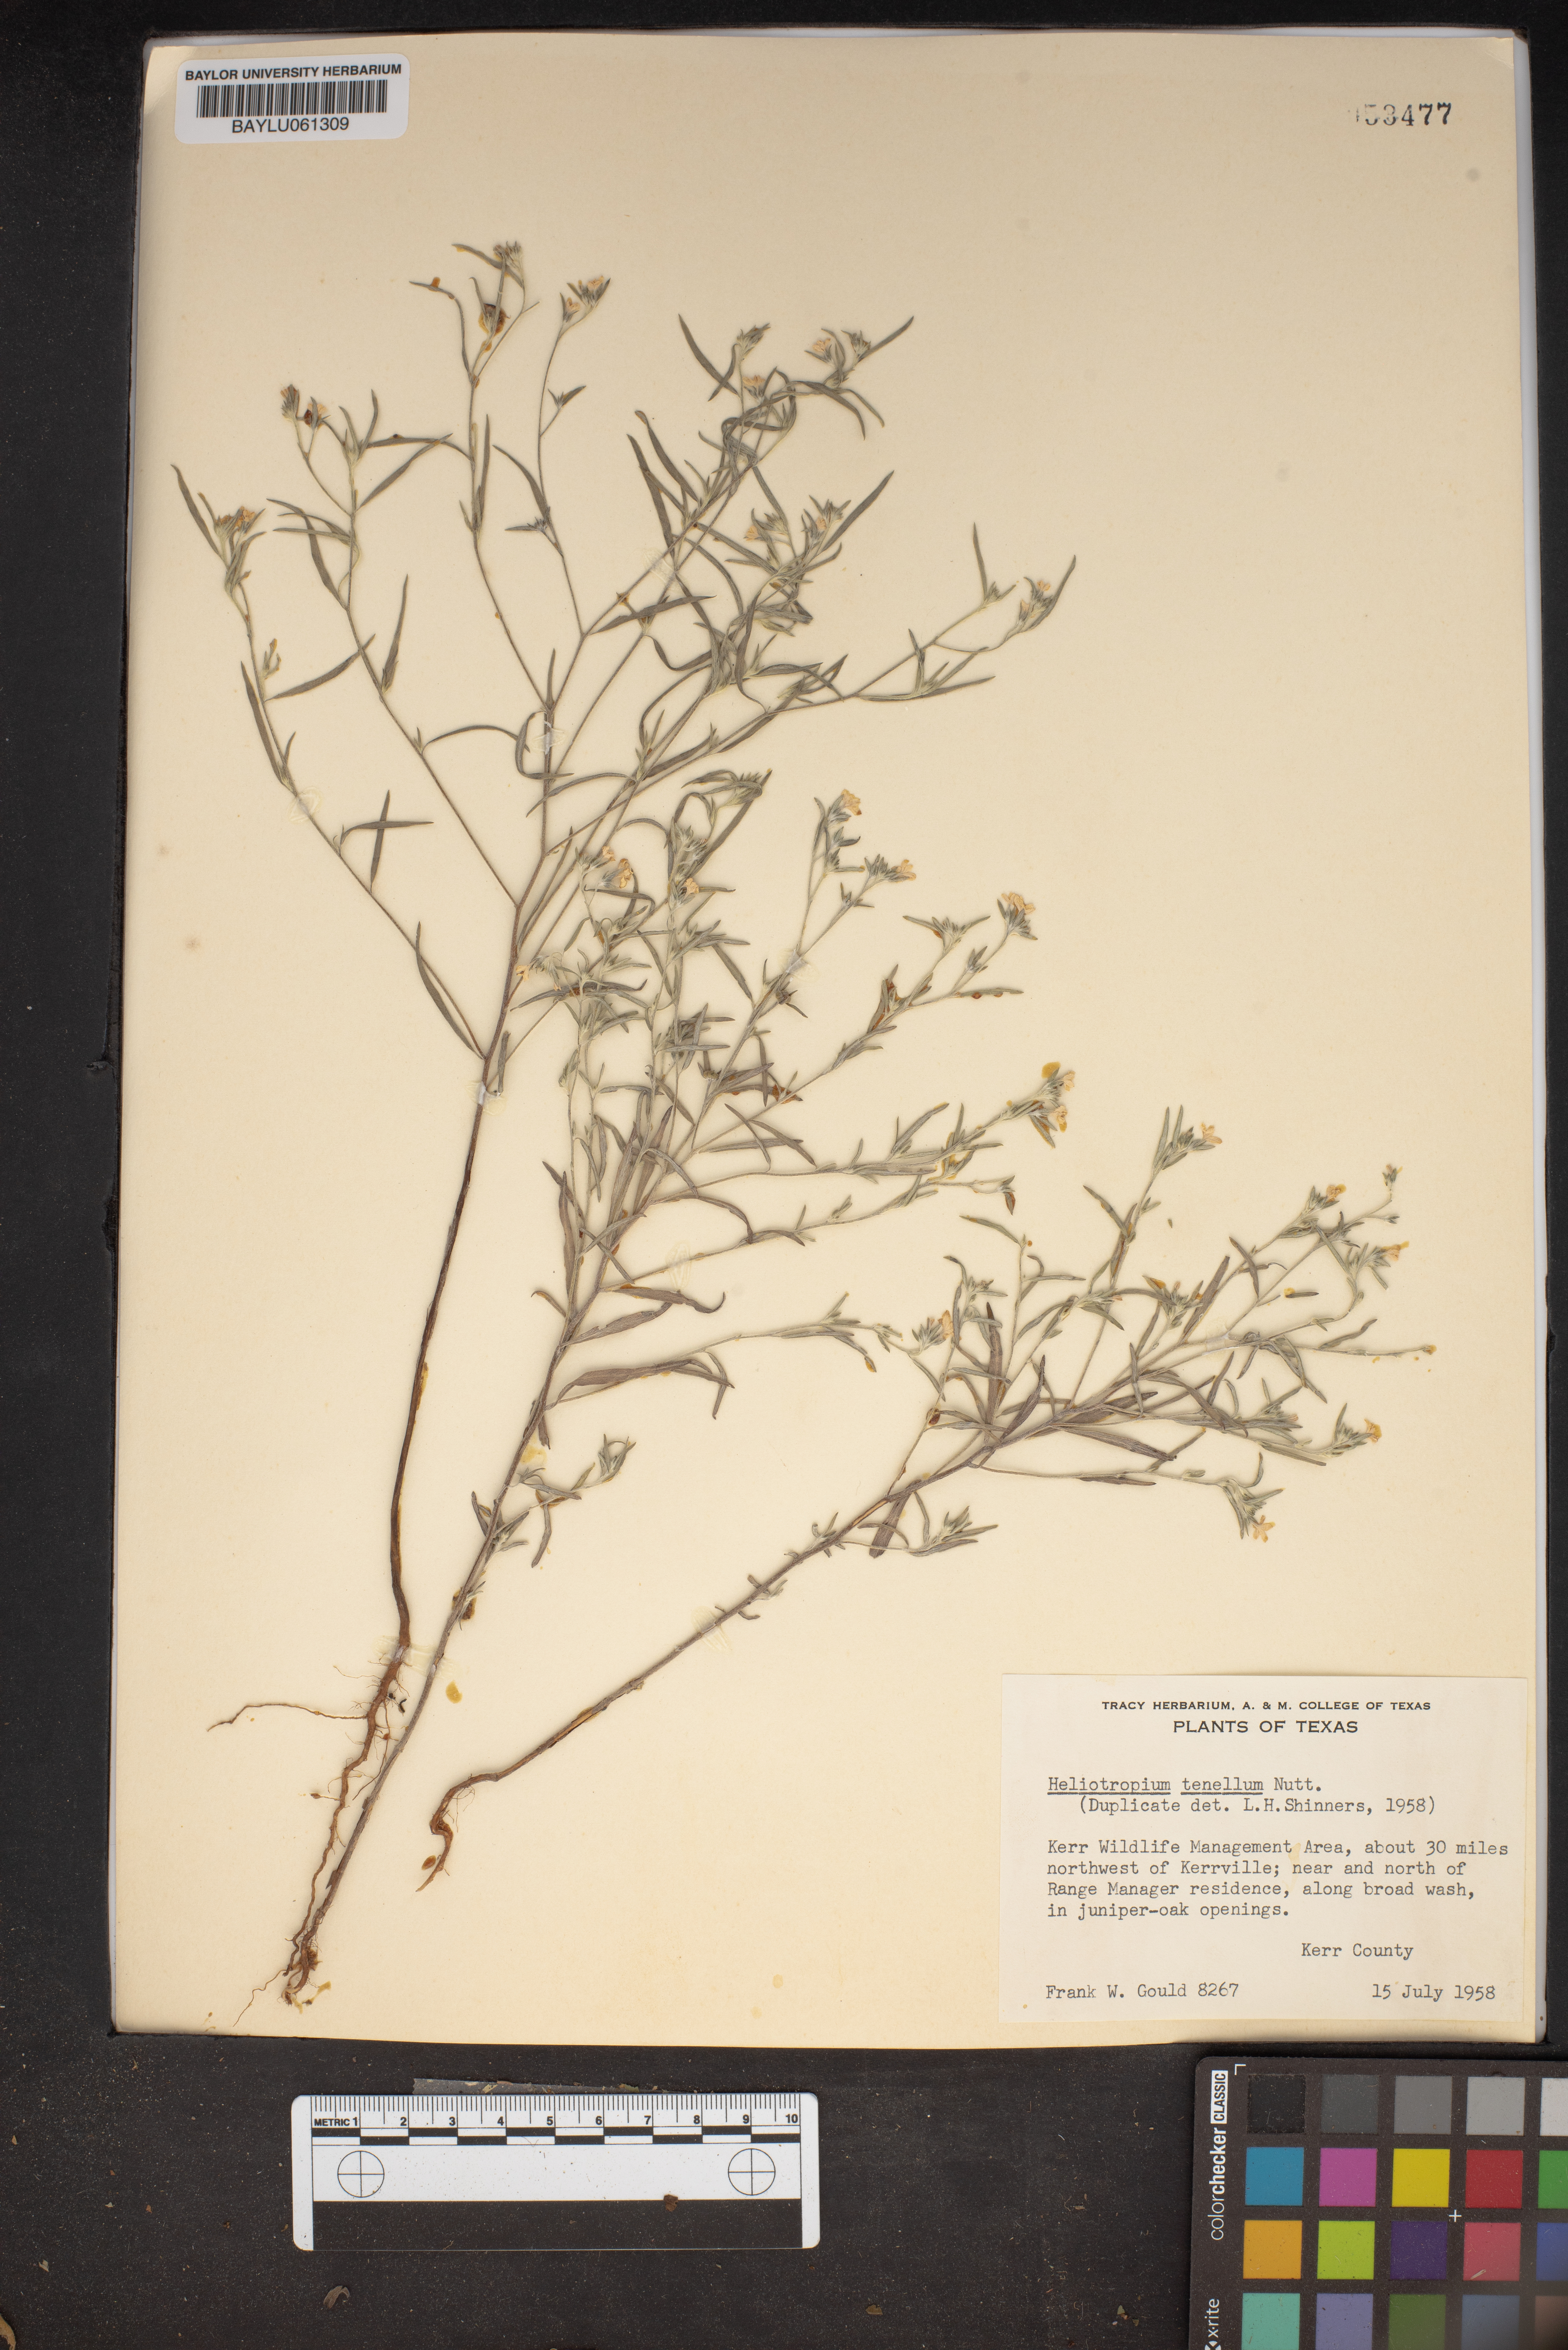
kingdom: Plantae
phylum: Tracheophyta
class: Magnoliopsida
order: Boraginales
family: Heliotropiaceae
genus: Euploca
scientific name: Euploca tenella
